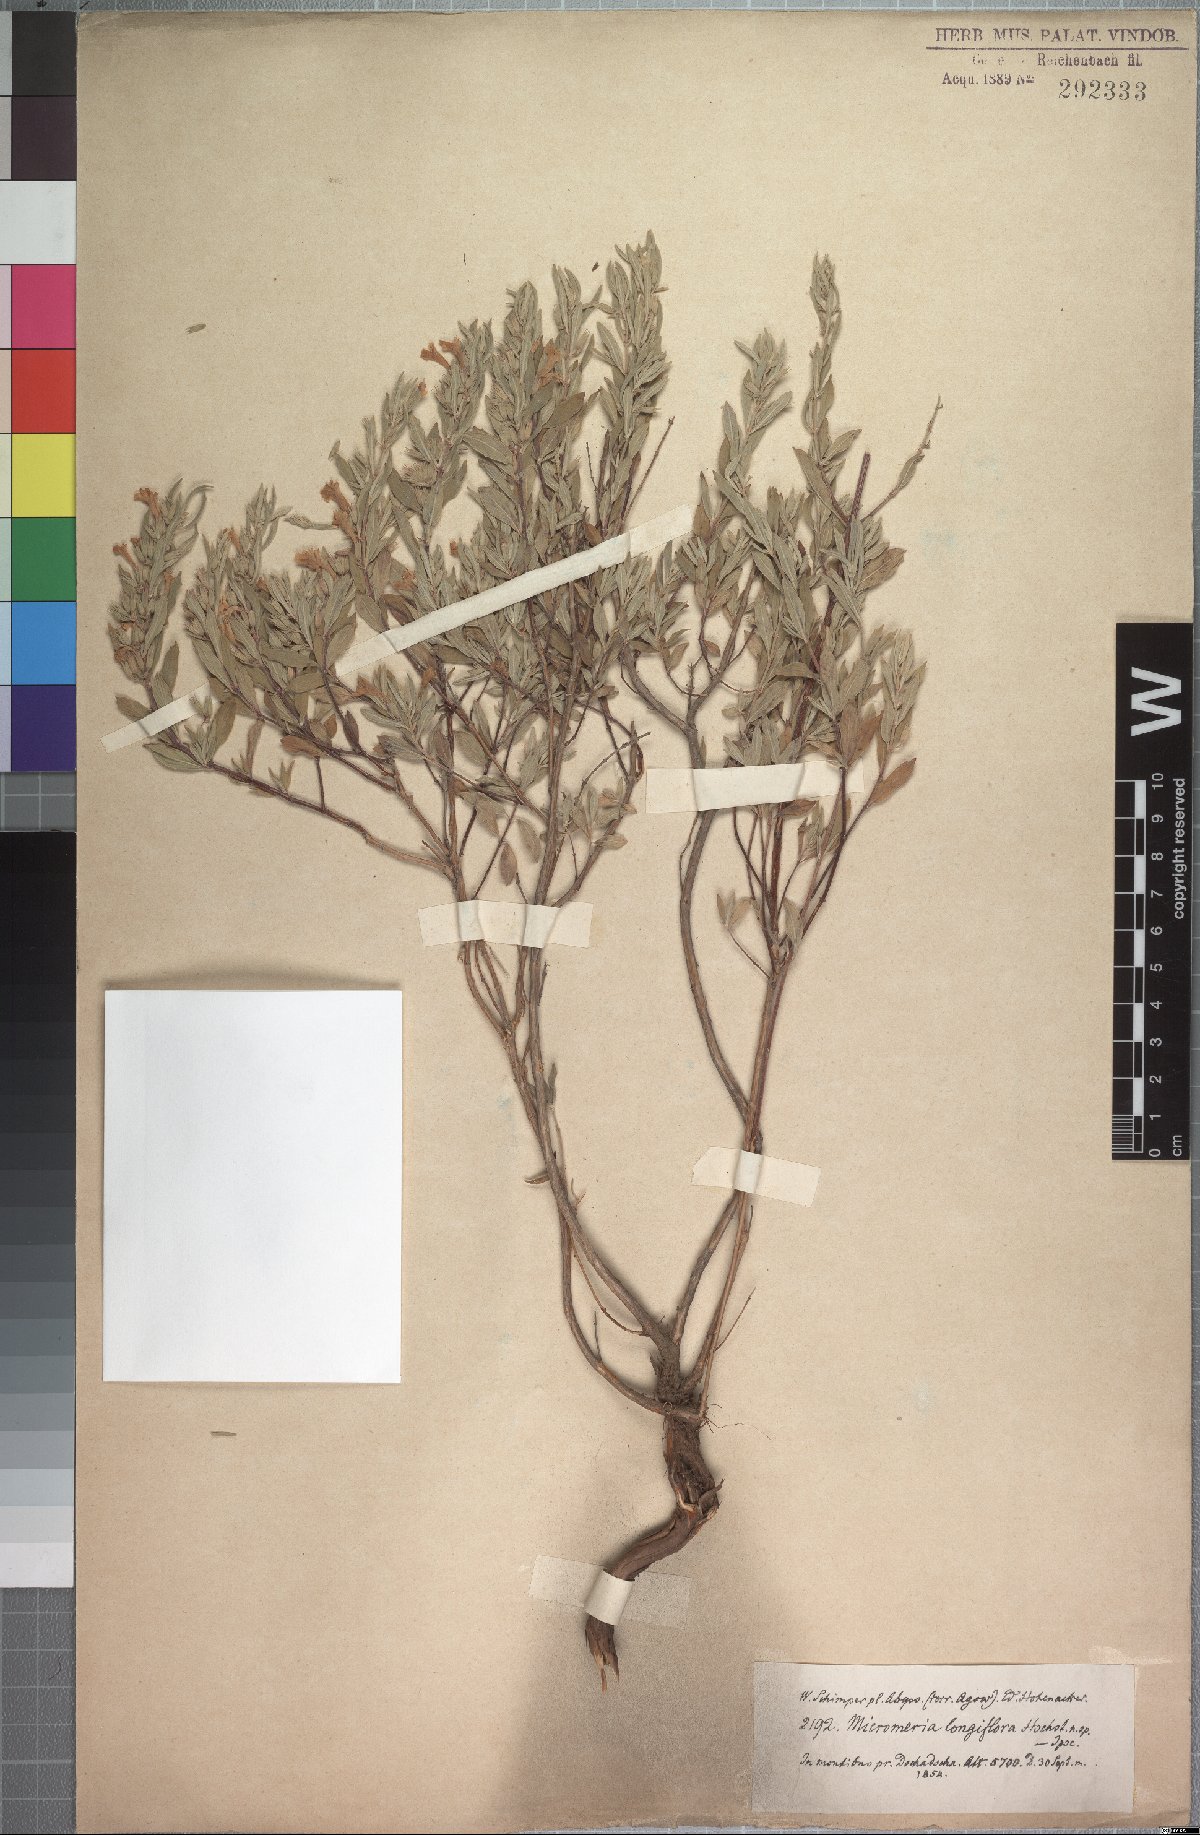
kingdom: Plantae
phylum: Tracheophyta
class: Magnoliopsida
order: Lamiales
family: Lamiaceae
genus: Micromeria
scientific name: Micromeria unguentaria
